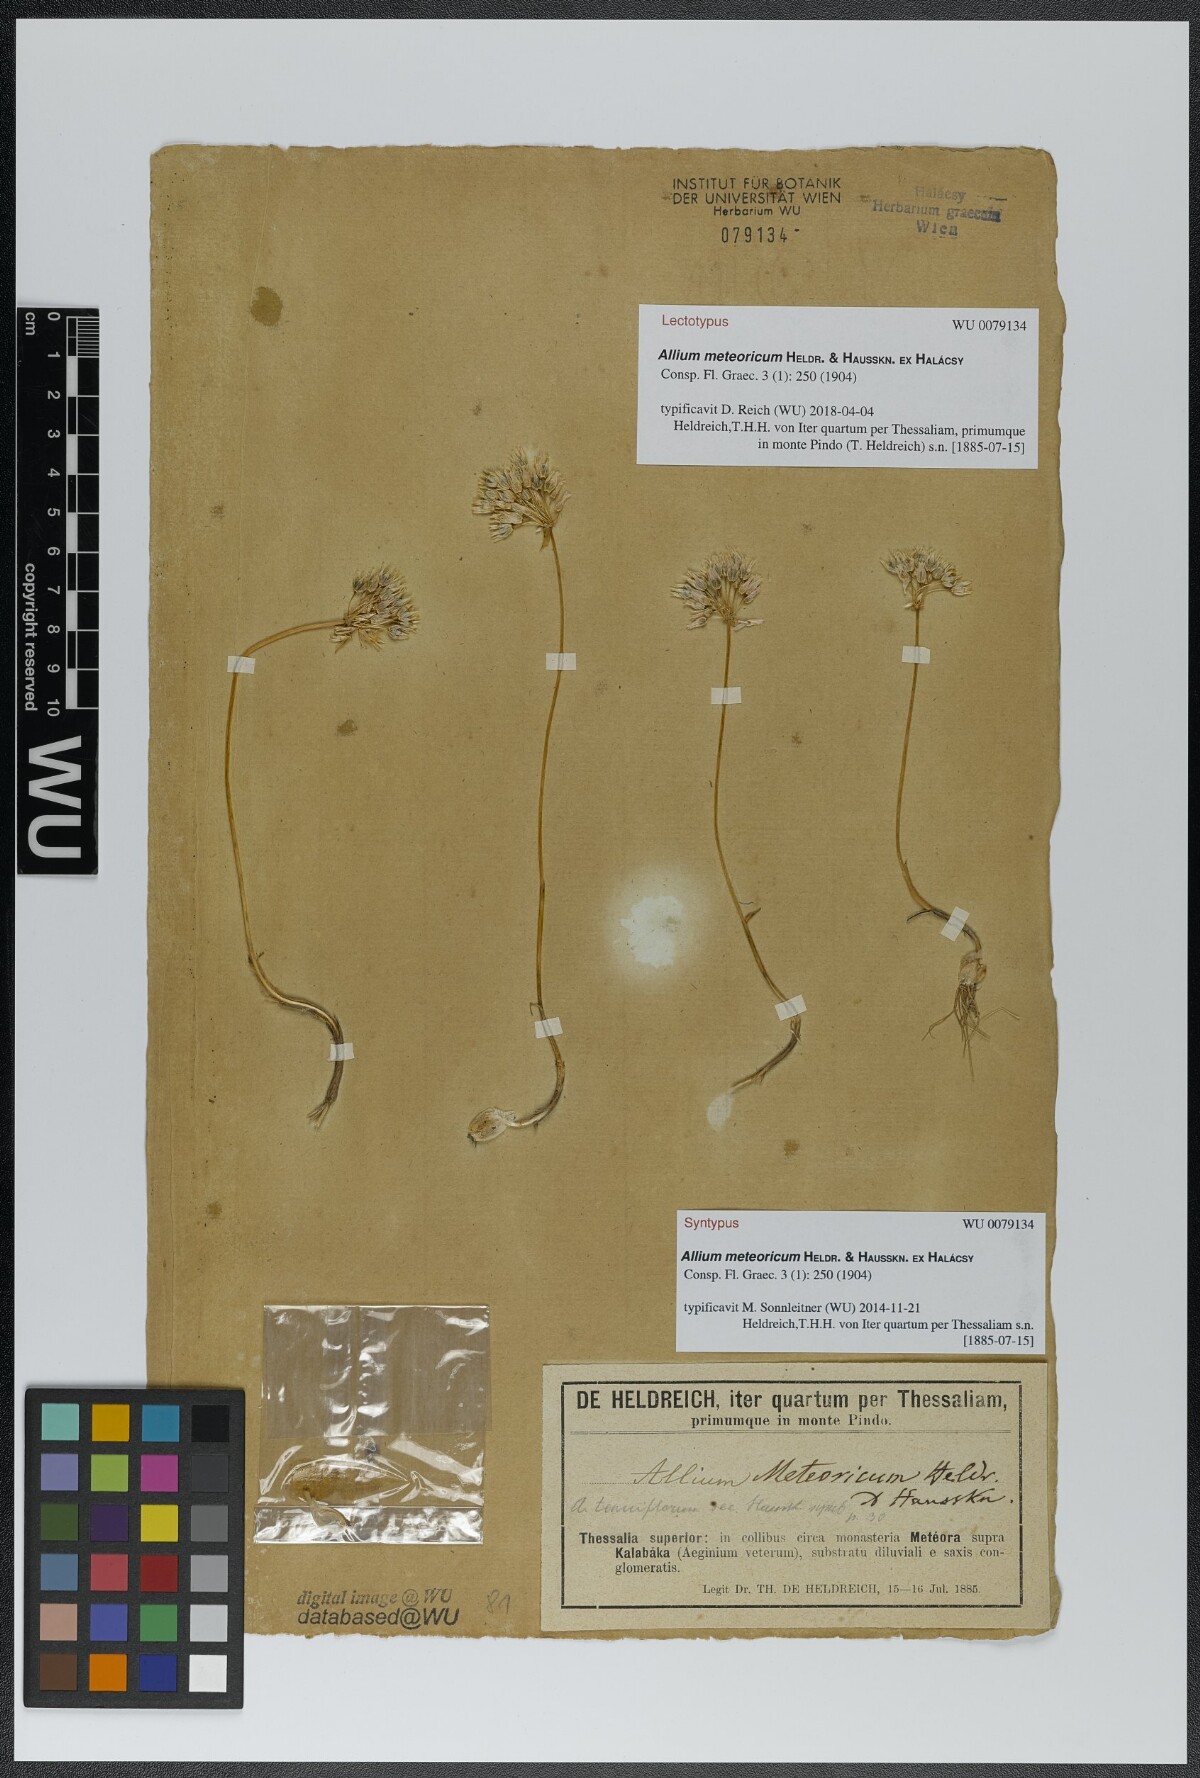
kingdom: Plantae
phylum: Tracheophyta
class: Liliopsida
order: Asparagales
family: Amaryllidaceae
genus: Allium
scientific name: Allium meteoricum
